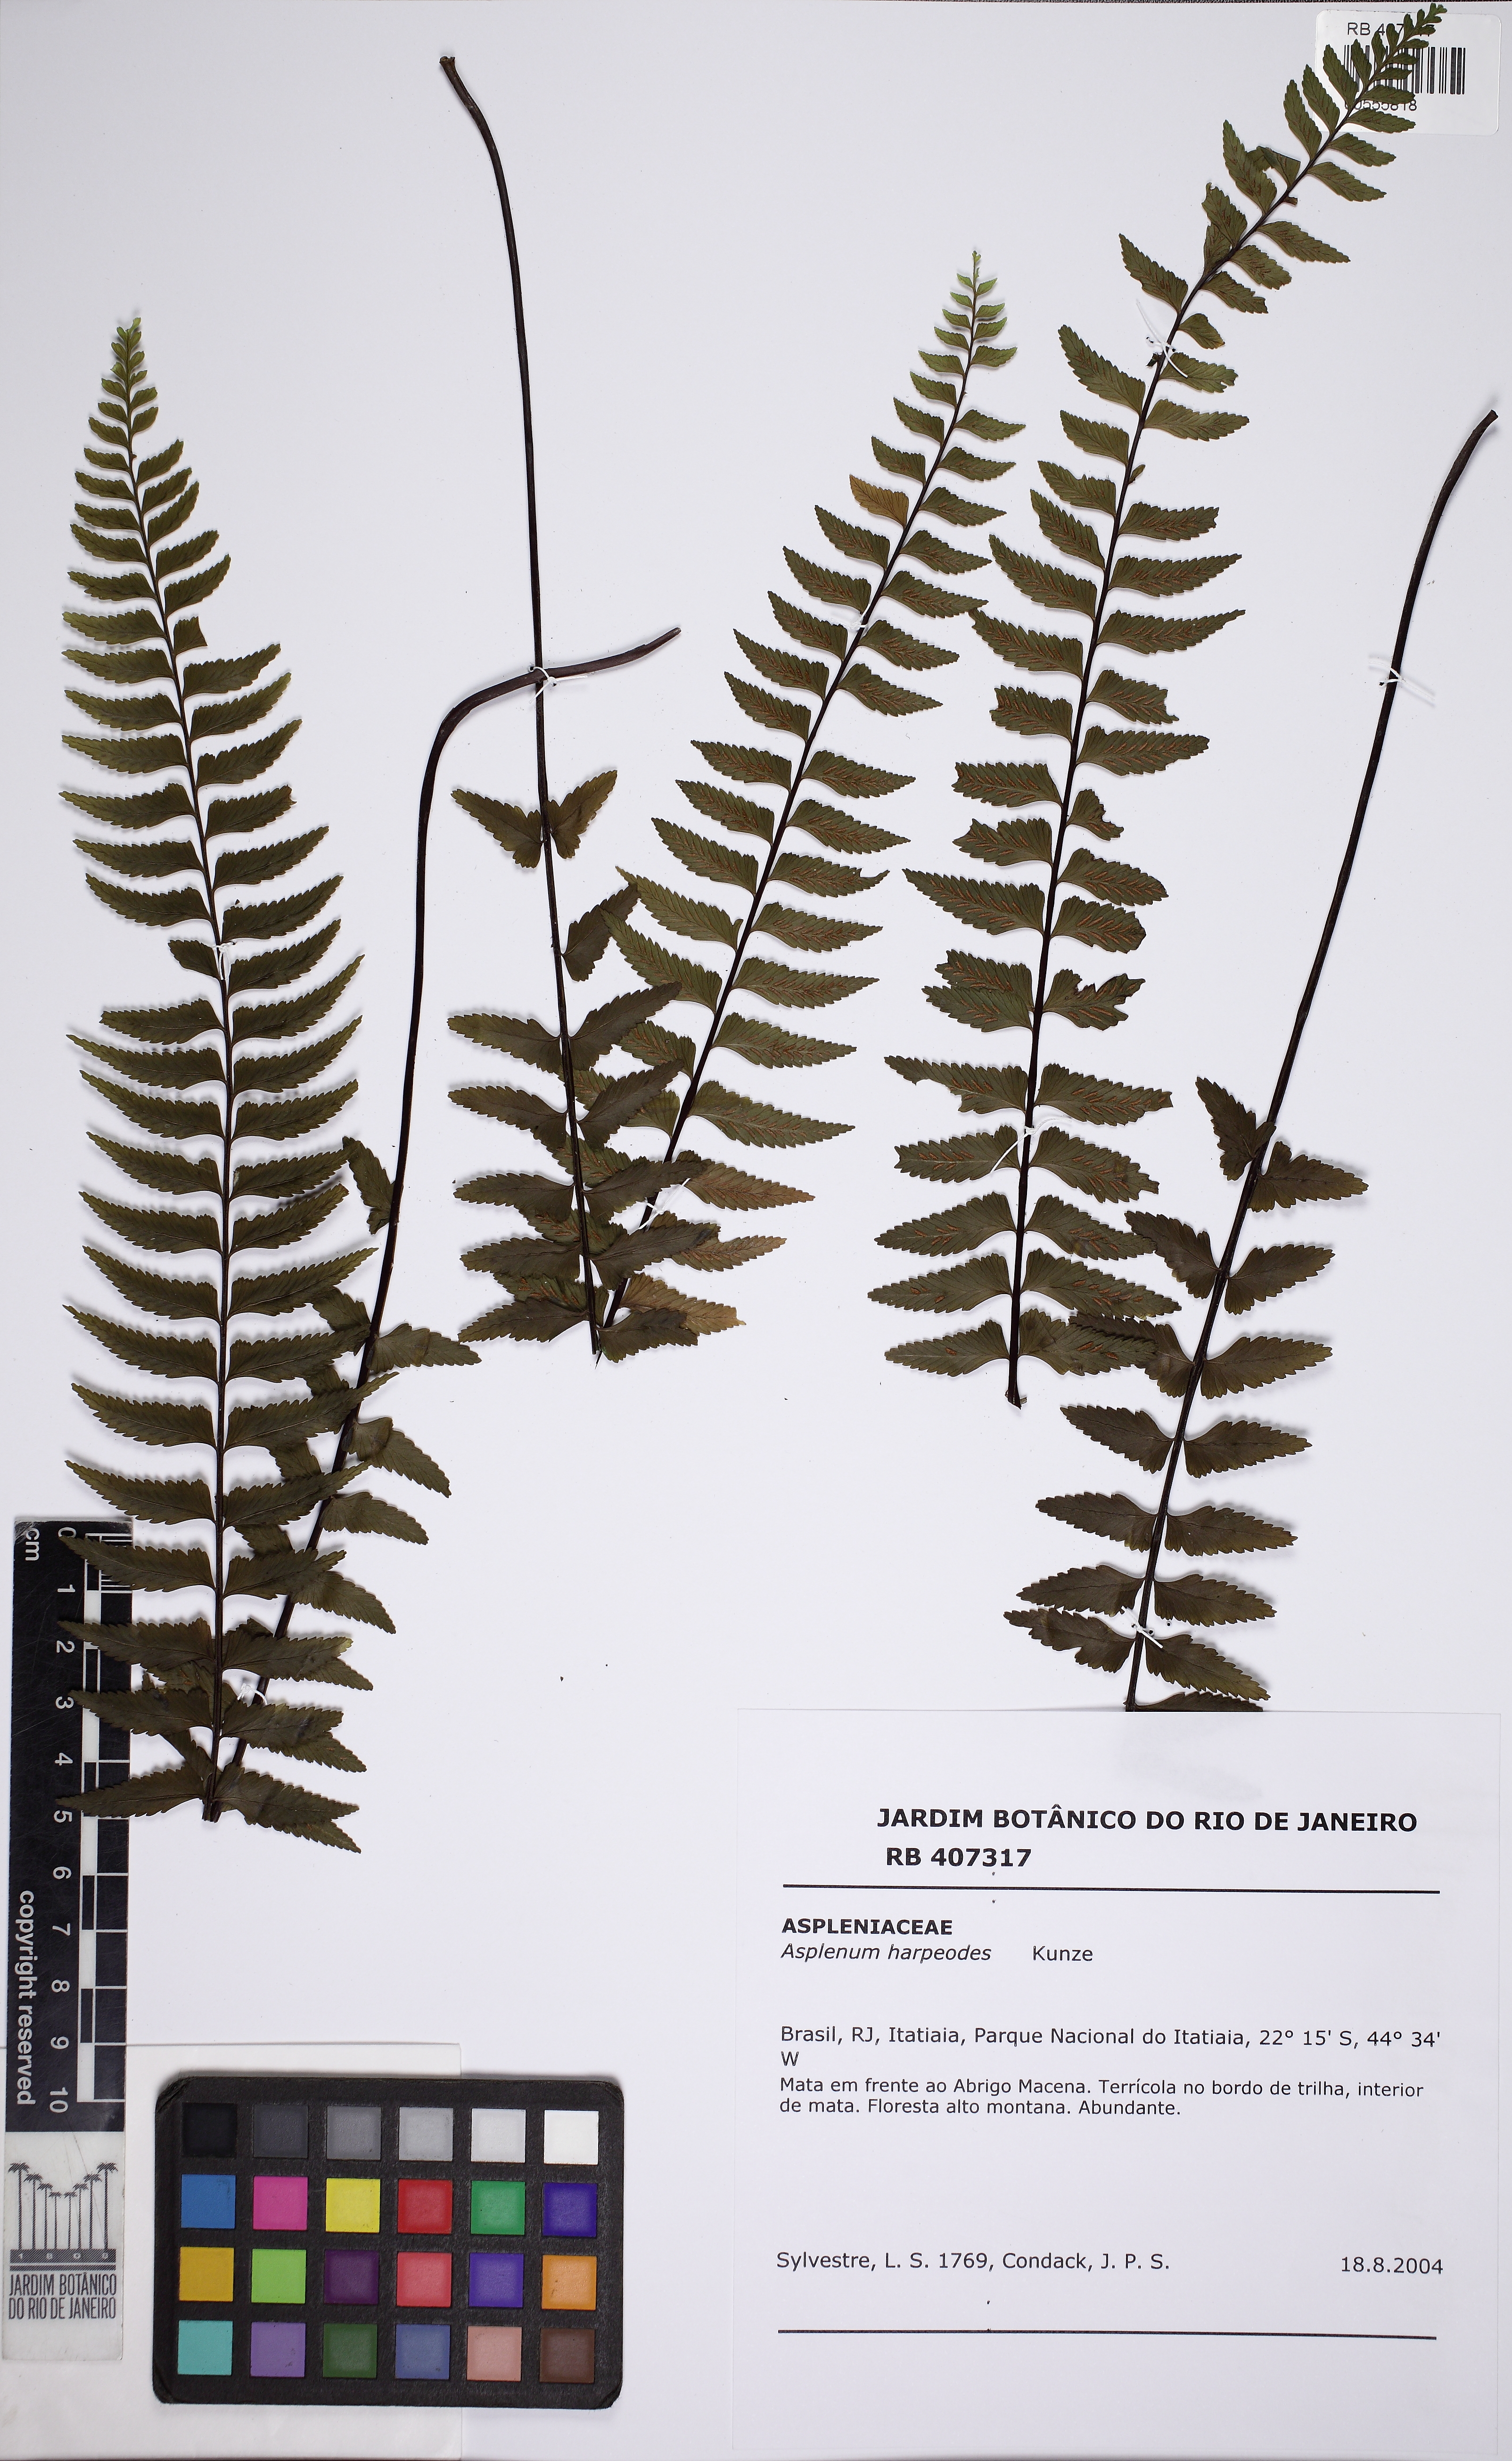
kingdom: Plantae
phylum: Tracheophyta
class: Polypodiopsida
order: Polypodiales
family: Aspleniaceae
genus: Asplenium
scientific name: Asplenium harpeodes
